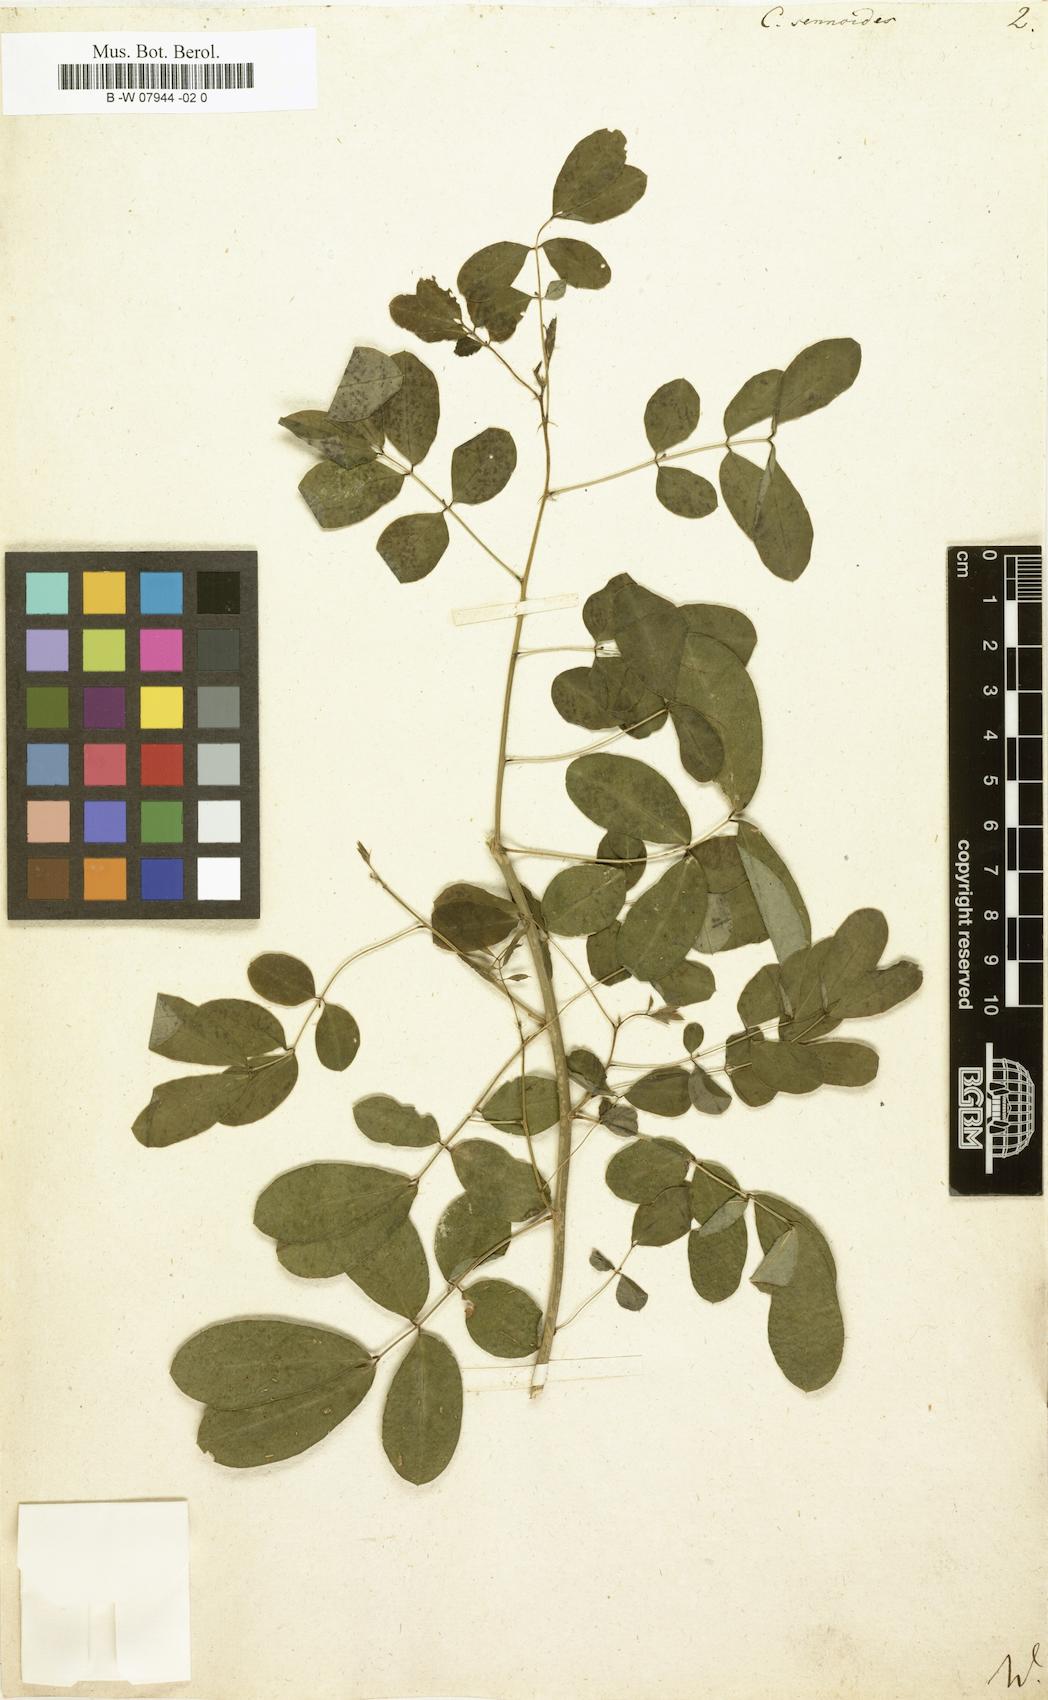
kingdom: Plantae
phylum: Tracheophyta
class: Magnoliopsida
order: Fabales
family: Fabaceae
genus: Senna
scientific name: Senna bicapsularis
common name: Christmasbush
